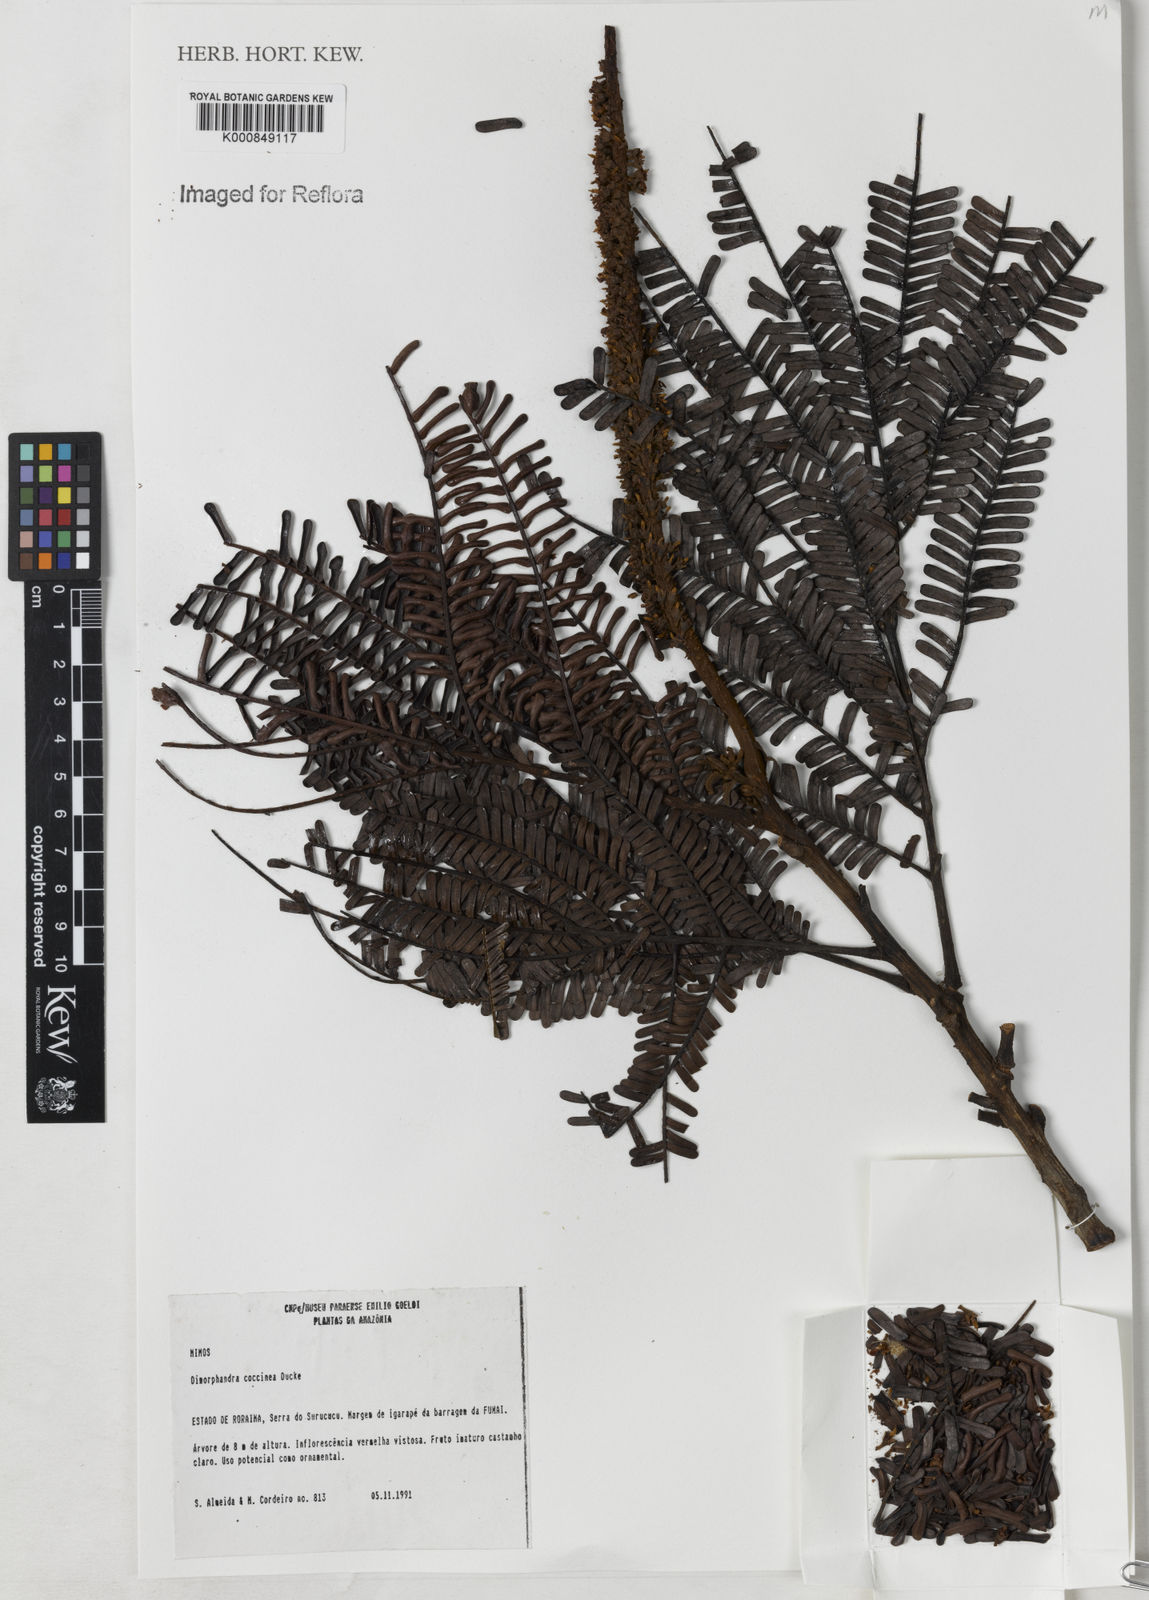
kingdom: Plantae
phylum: Tracheophyta
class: Magnoliopsida
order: Fabales
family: Fabaceae
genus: Dimorphandra
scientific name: Dimorphandra coccinea
